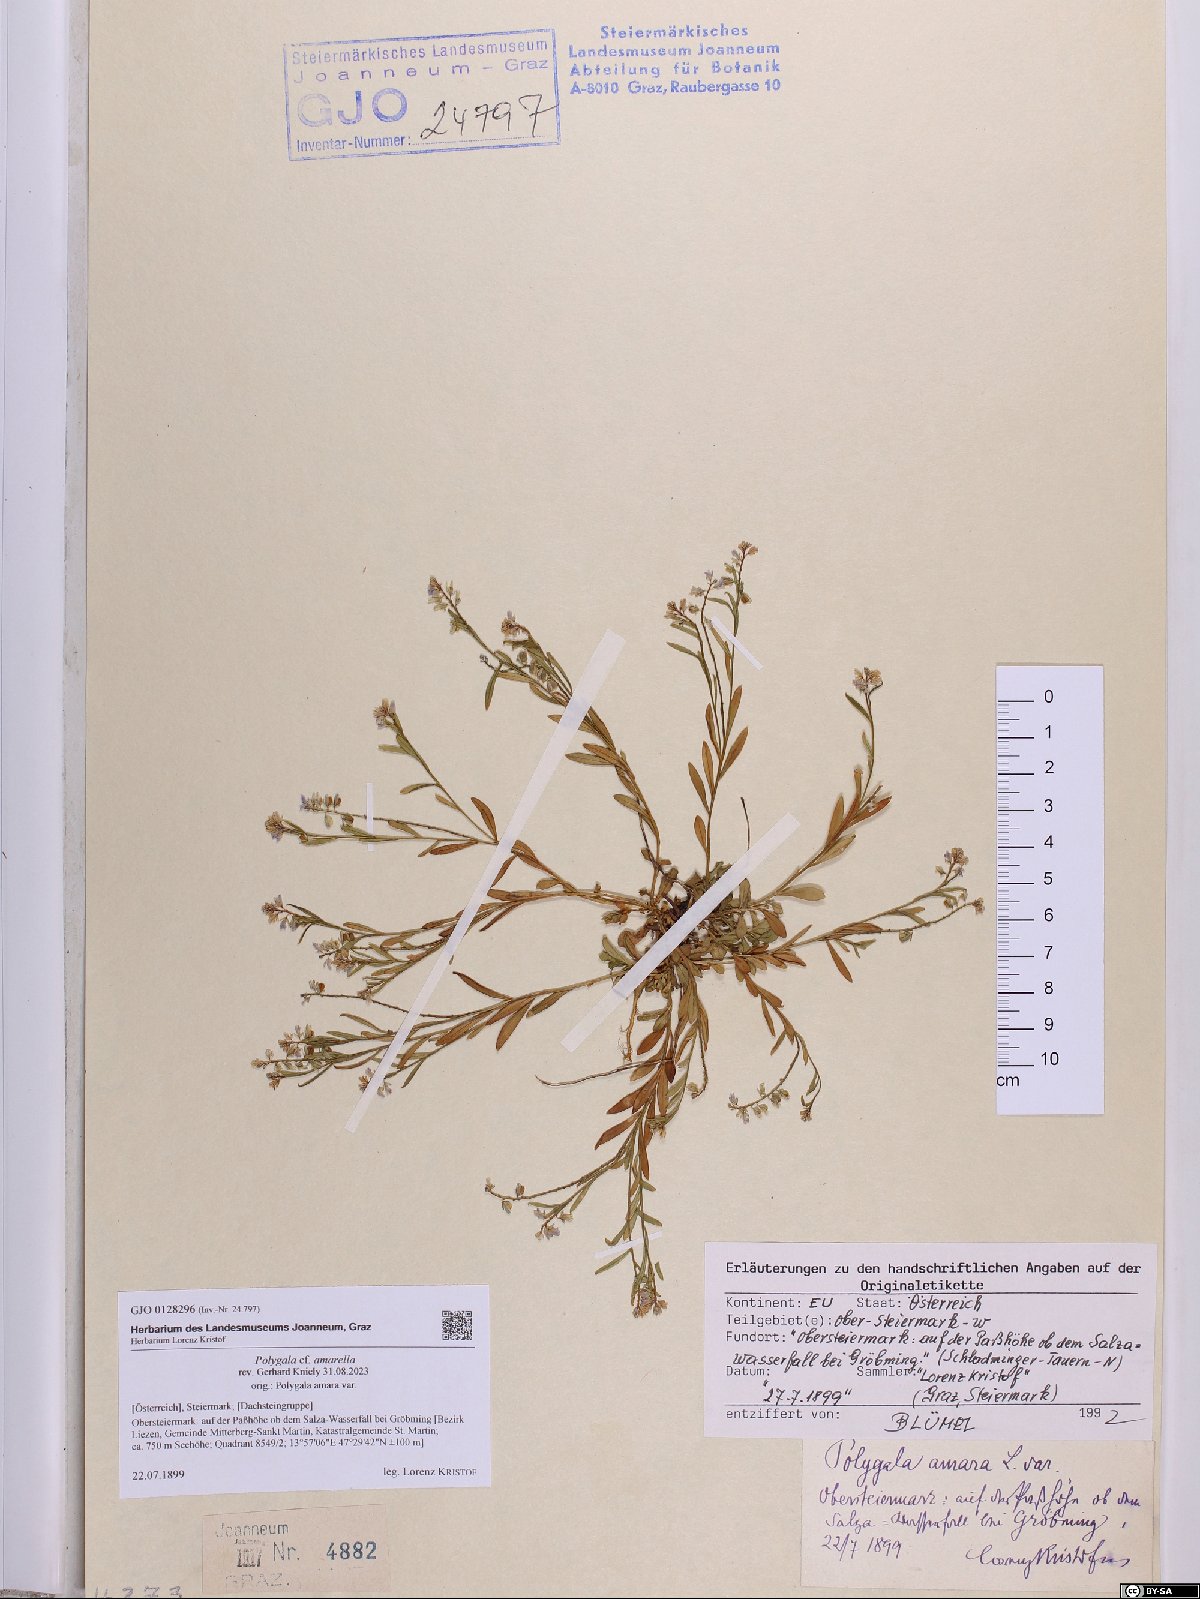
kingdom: Plantae
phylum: Tracheophyta
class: Magnoliopsida
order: Fabales
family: Polygalaceae
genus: Polygala
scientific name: Polygala amarella
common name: Dwarf milkwort
